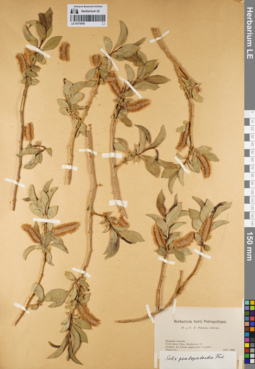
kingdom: Plantae
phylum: Tracheophyta
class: Magnoliopsida
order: Malpighiales
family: Salicaceae
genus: Salix
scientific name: Salix pseudopentandra
